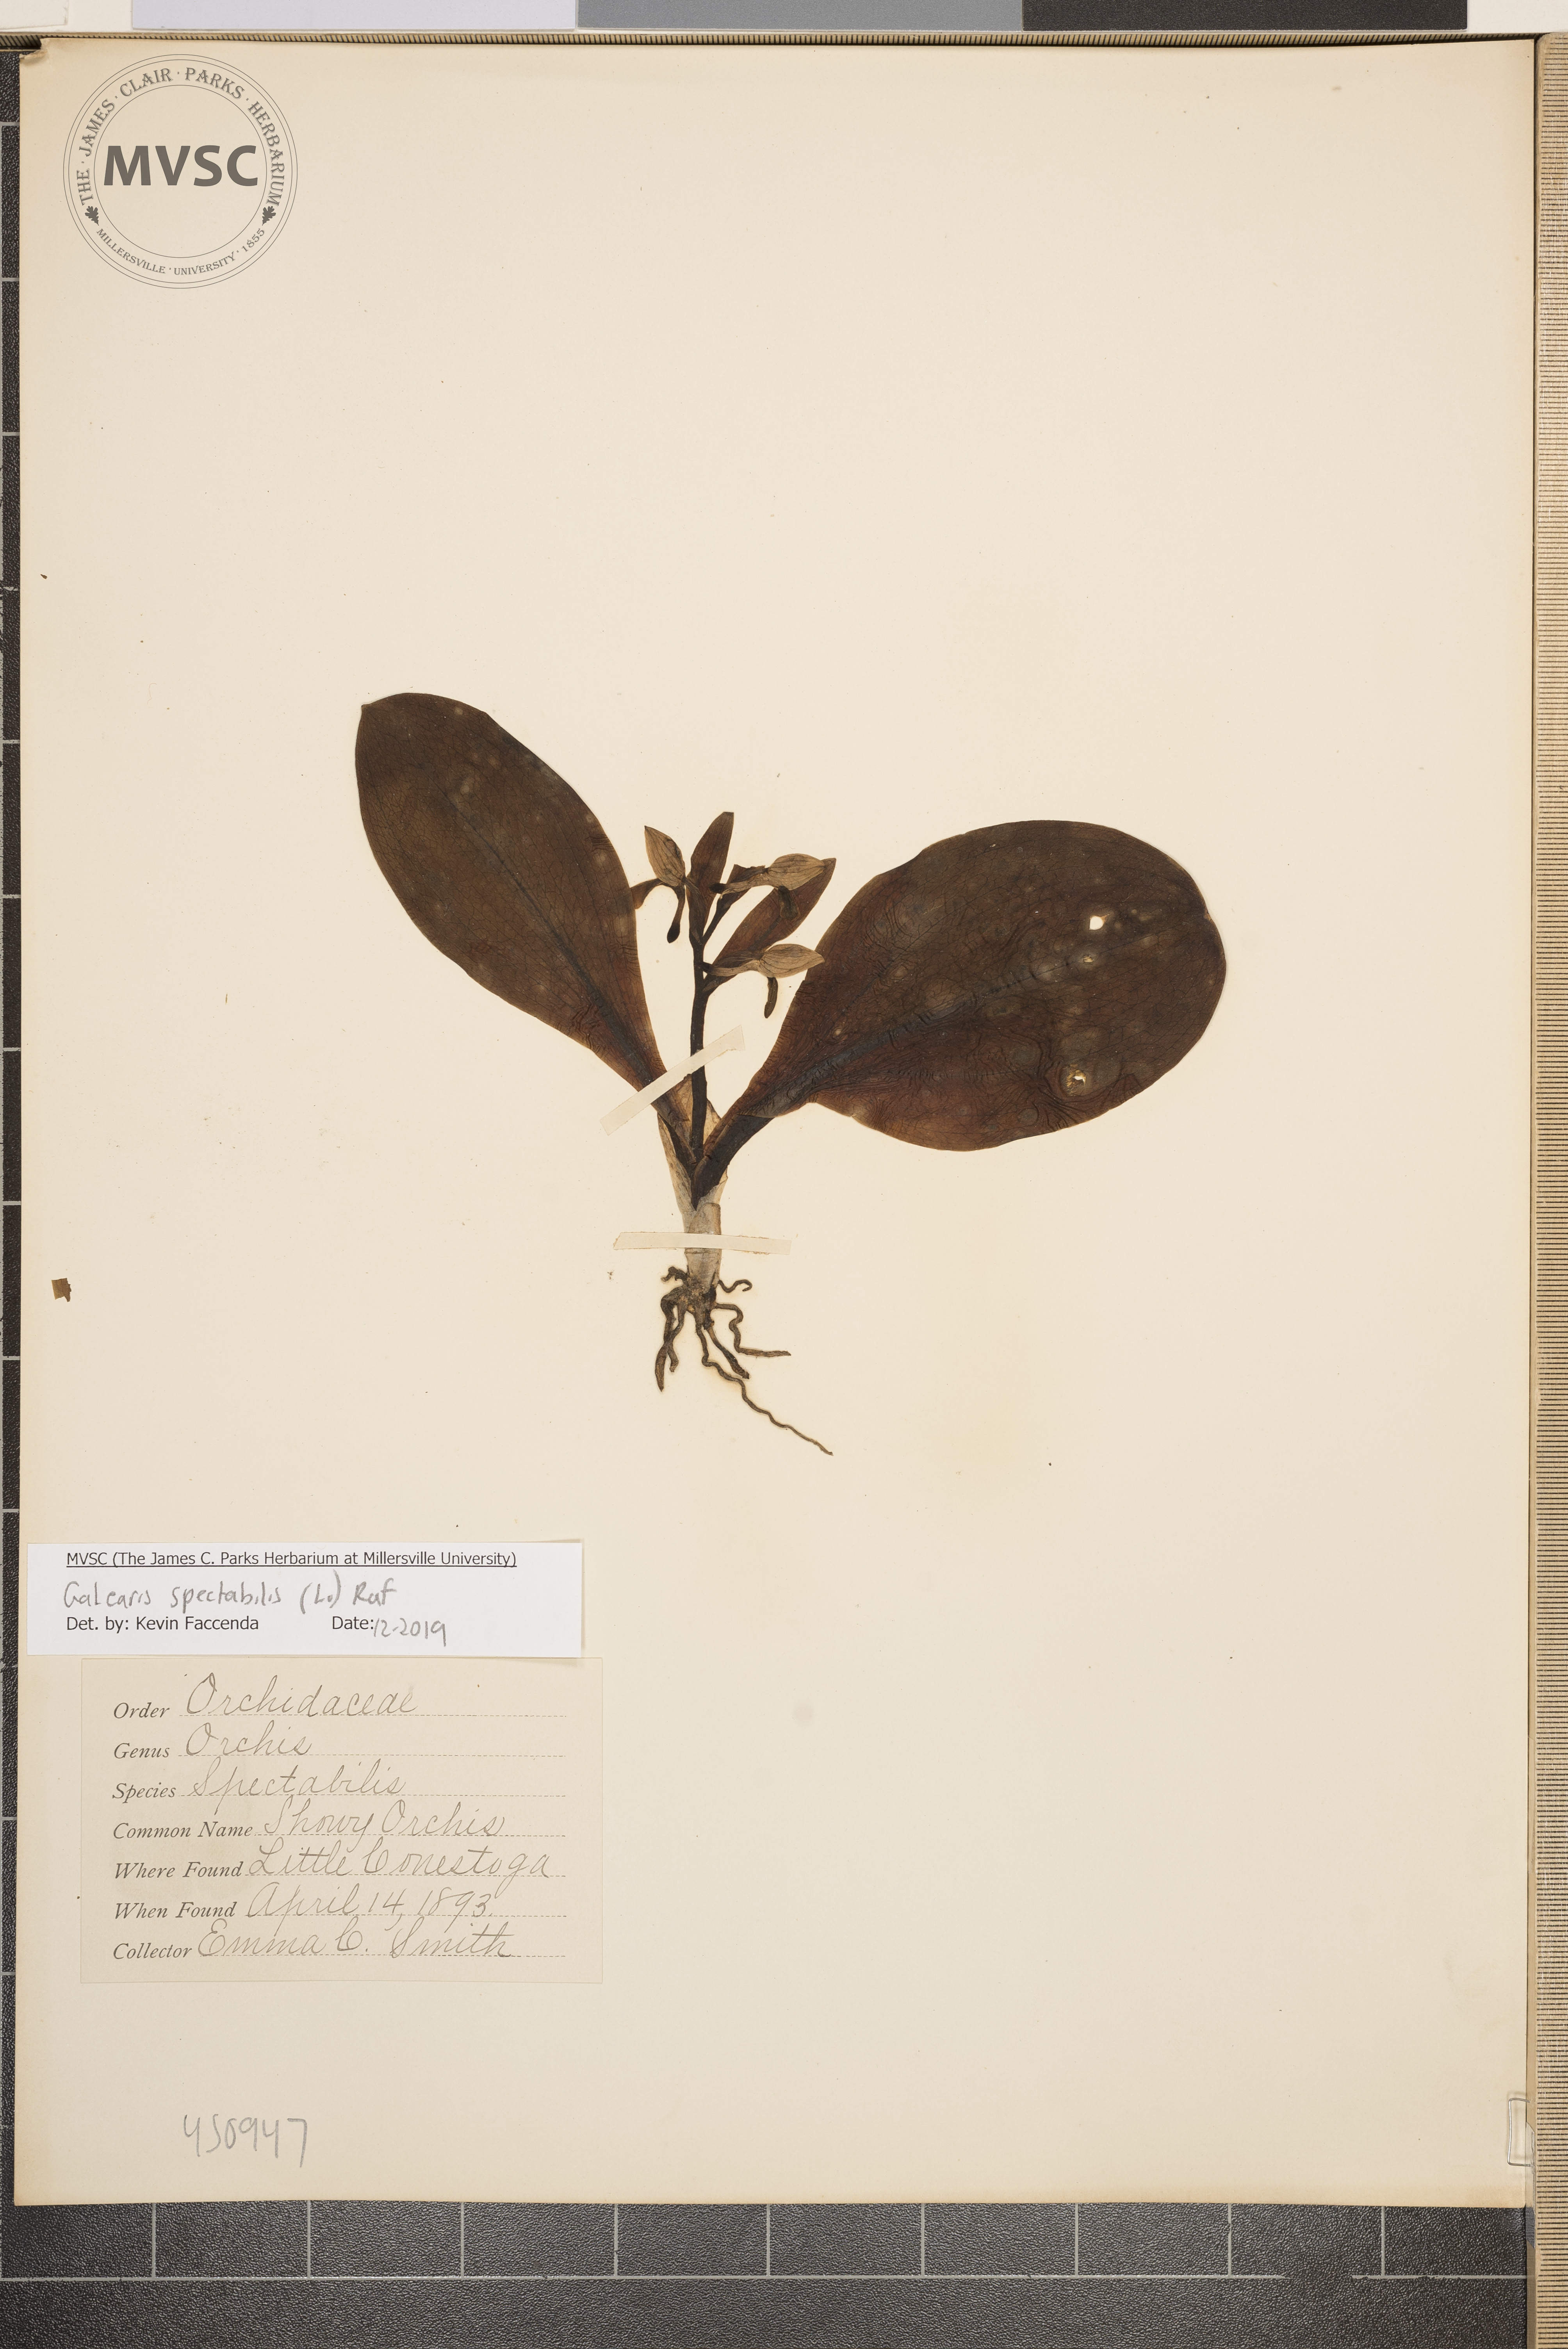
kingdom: Plantae
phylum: Tracheophyta
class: Liliopsida
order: Asparagales
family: Orchidaceae
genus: Galearis
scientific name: Galearis spectabilis
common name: Showy Orchis
